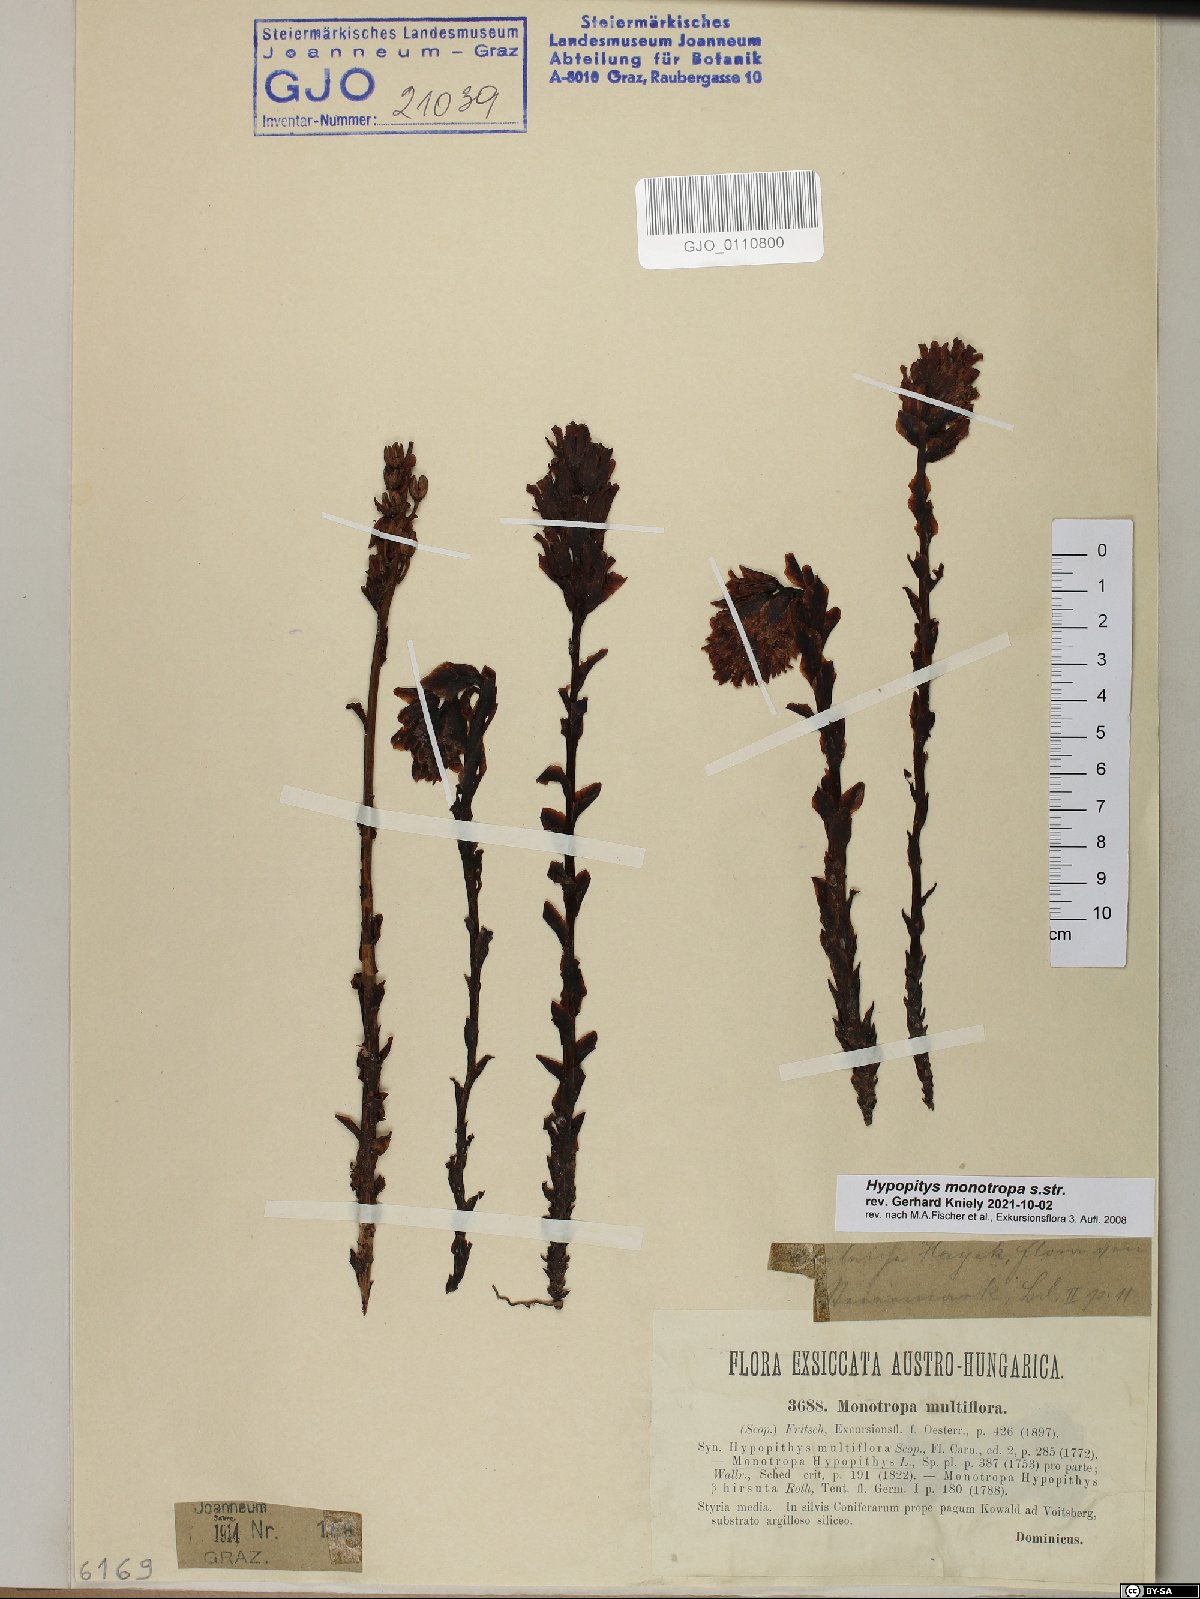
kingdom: Plantae
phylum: Tracheophyta
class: Magnoliopsida
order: Ericales
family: Ericaceae
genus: Hypopitys
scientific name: Hypopitys monotropa
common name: Yellow bird's-nest
